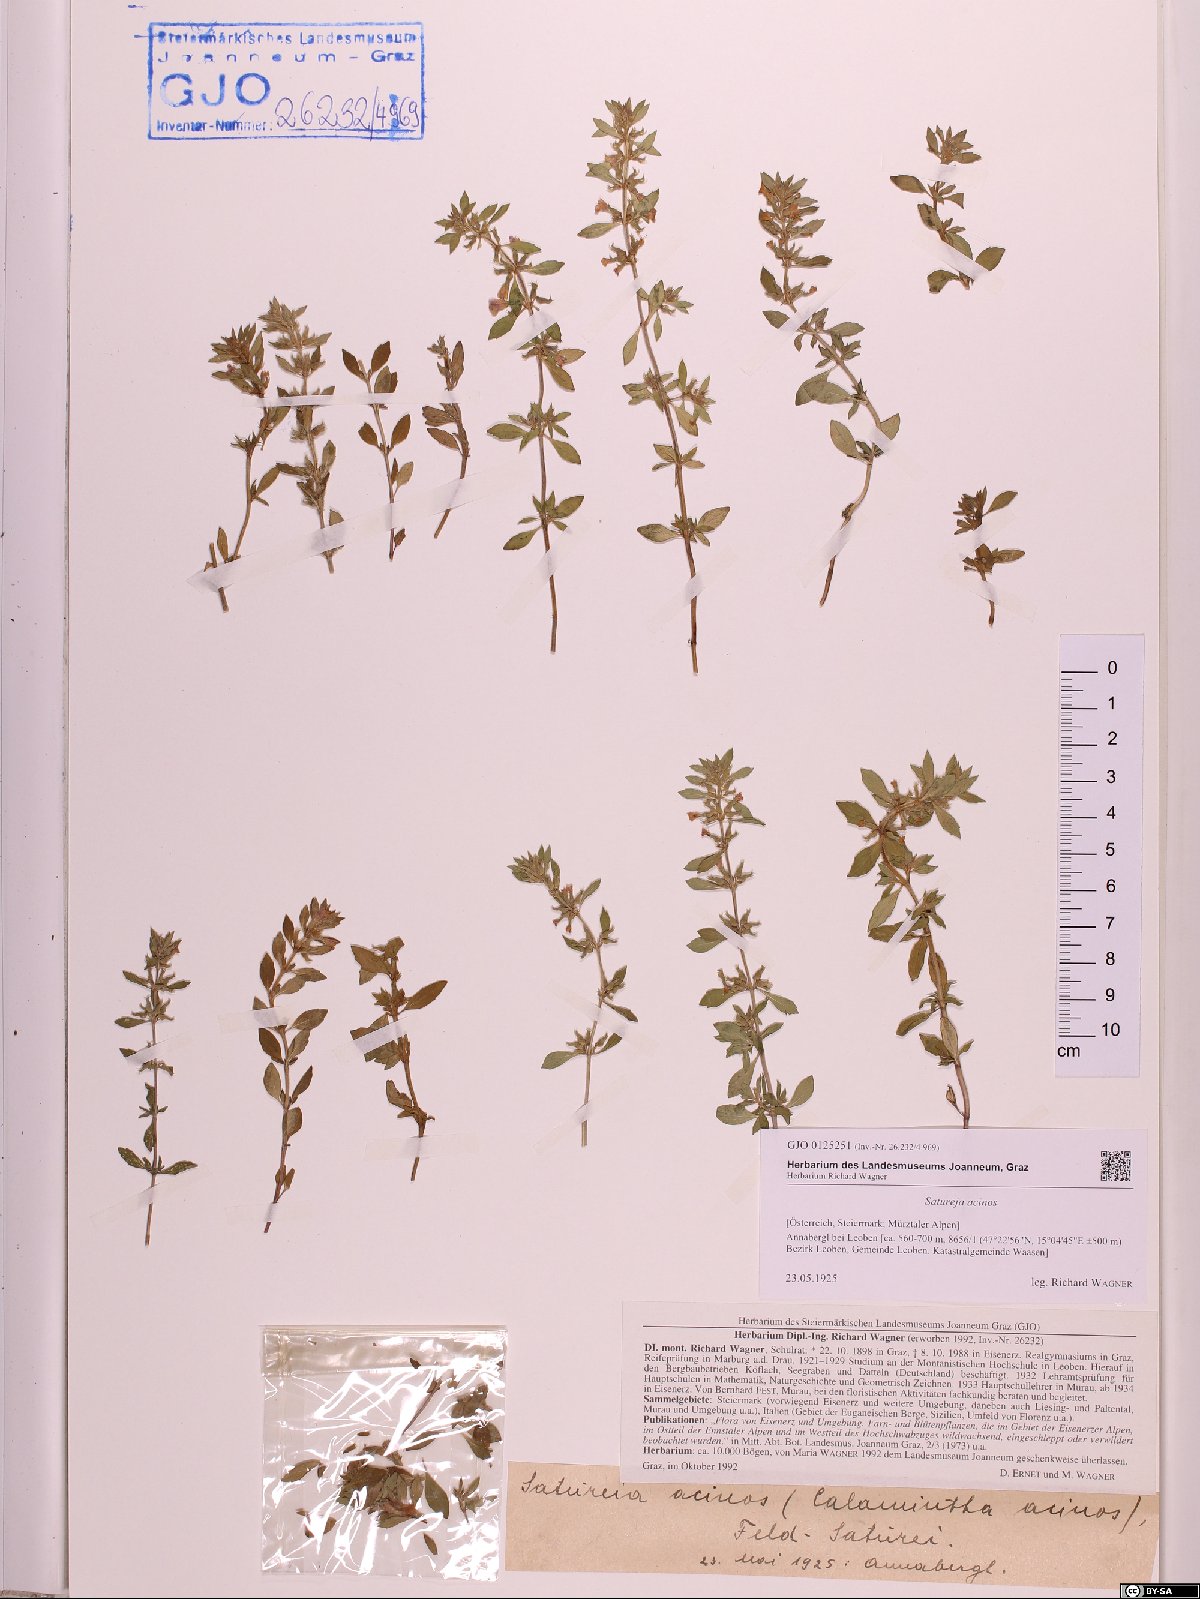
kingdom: Plantae
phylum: Tracheophyta
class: Magnoliopsida
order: Lamiales
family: Lamiaceae
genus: Clinopodium
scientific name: Clinopodium acinos
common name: Basil thyme
